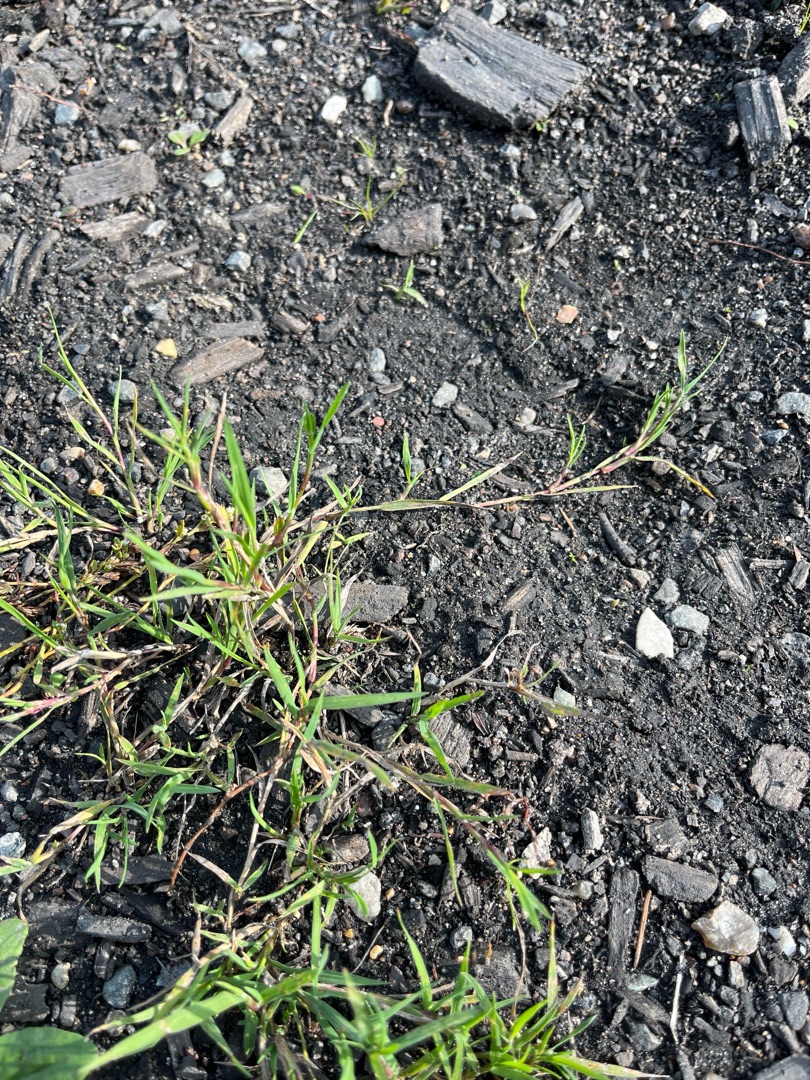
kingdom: Plantae
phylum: Tracheophyta
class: Liliopsida
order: Poales
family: Poaceae
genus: Agrostis
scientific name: Agrostis stolonifera
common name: Kryb-hvene
